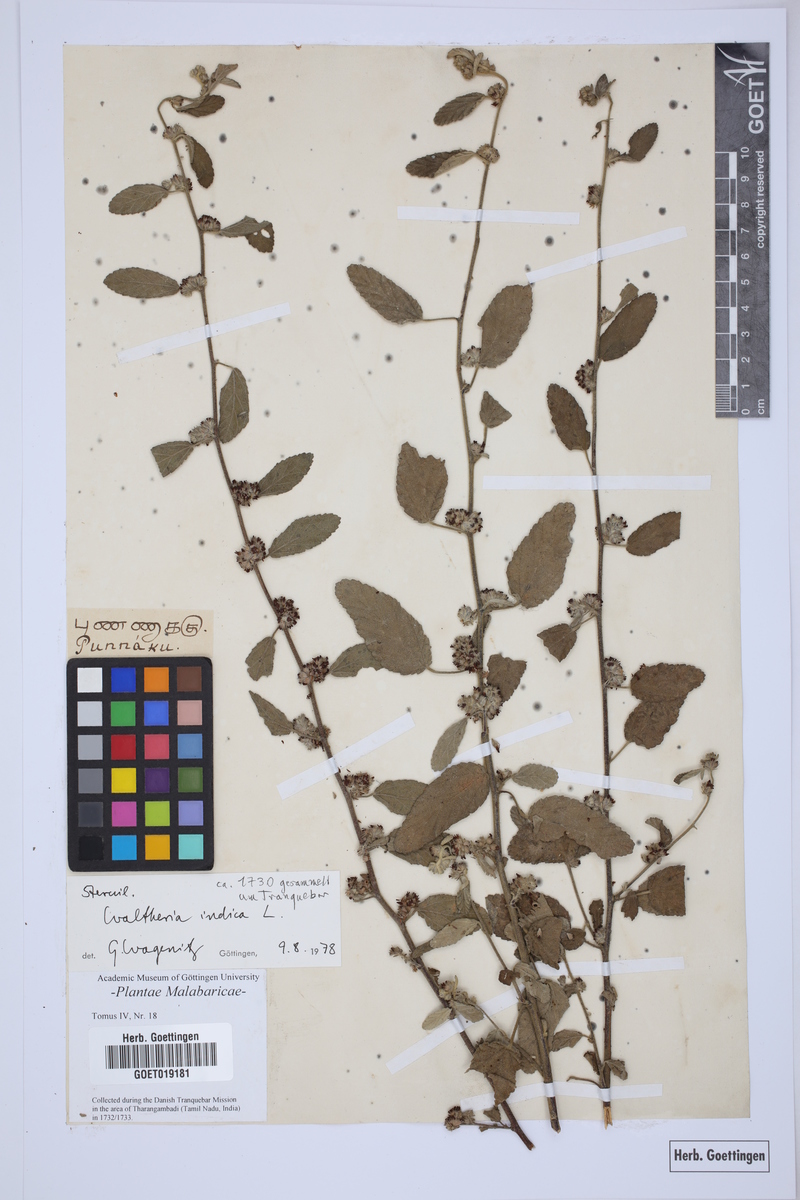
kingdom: Plantae
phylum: Tracheophyta
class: Magnoliopsida
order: Malvales
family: Malvaceae
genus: Waltheria
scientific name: Waltheria indica
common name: Leather-coat
